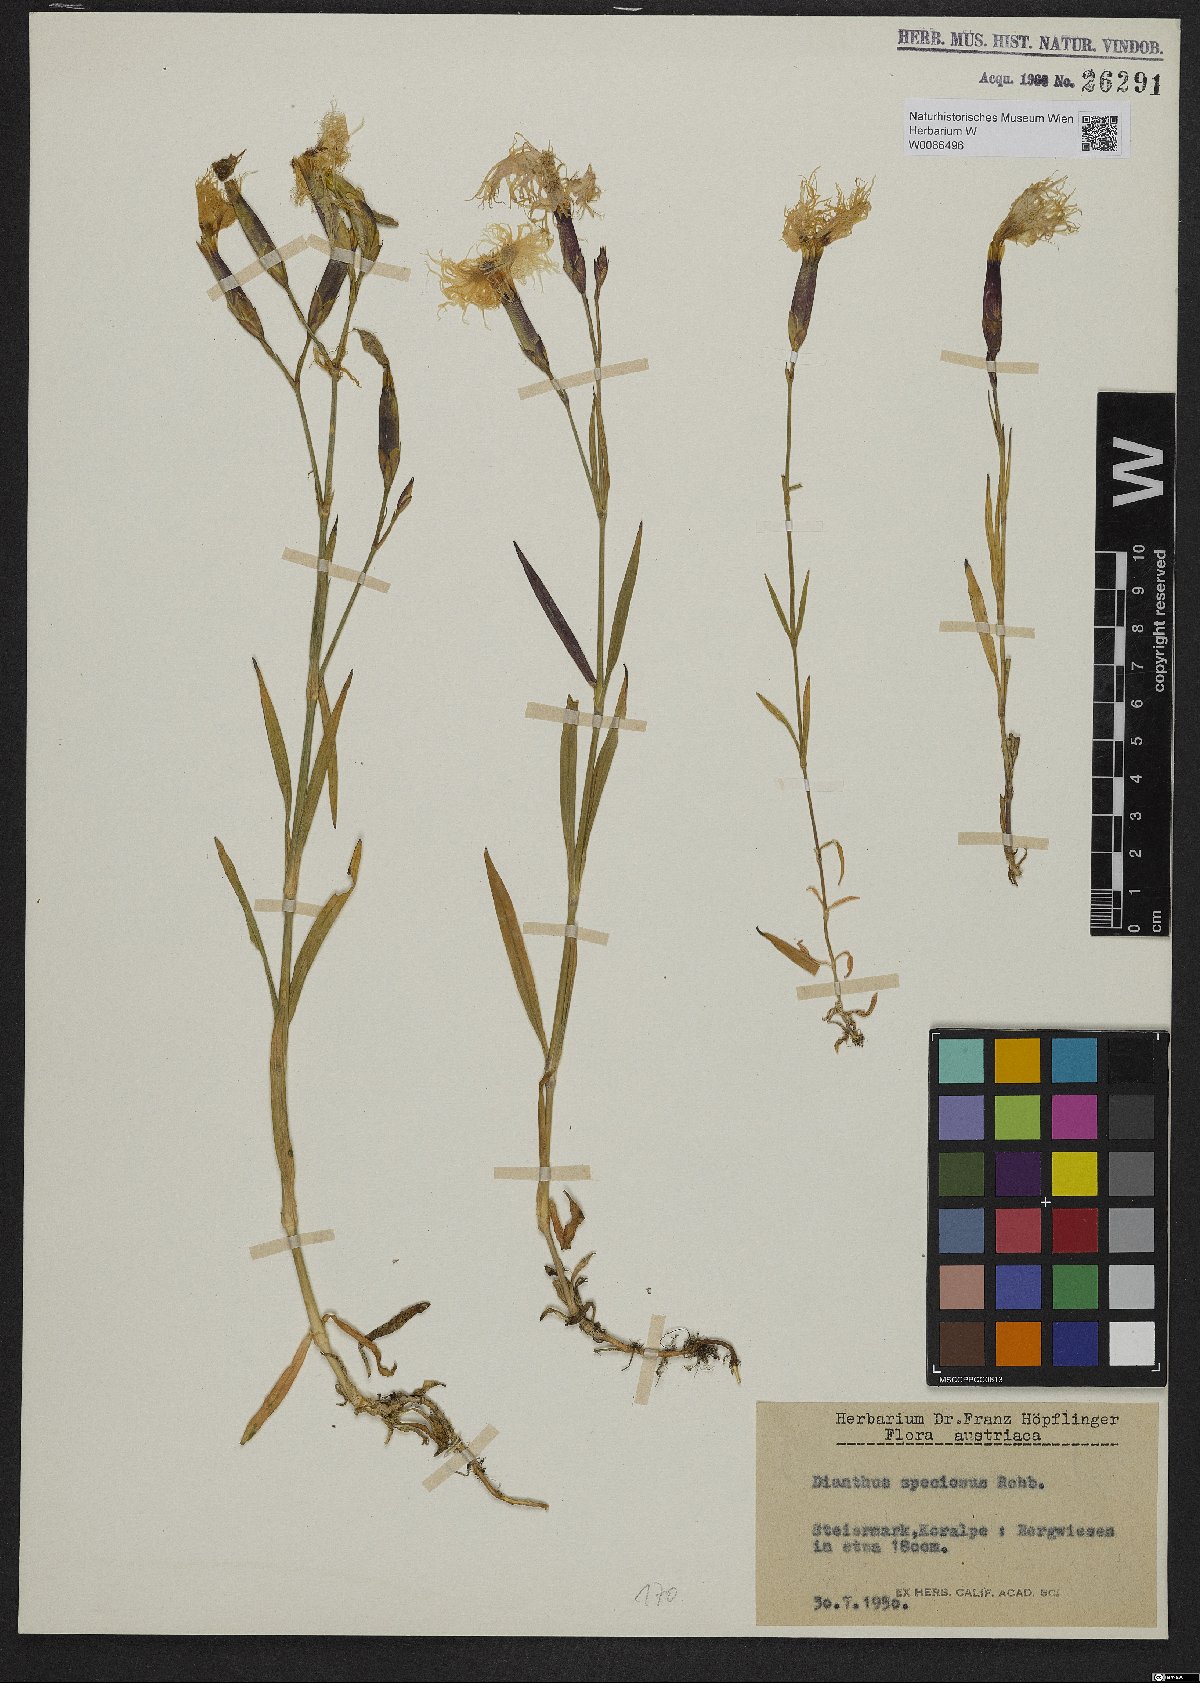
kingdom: Plantae
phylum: Tracheophyta
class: Magnoliopsida
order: Caryophyllales
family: Caryophyllaceae
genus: Dianthus
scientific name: Dianthus superbus
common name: Fringed pink
